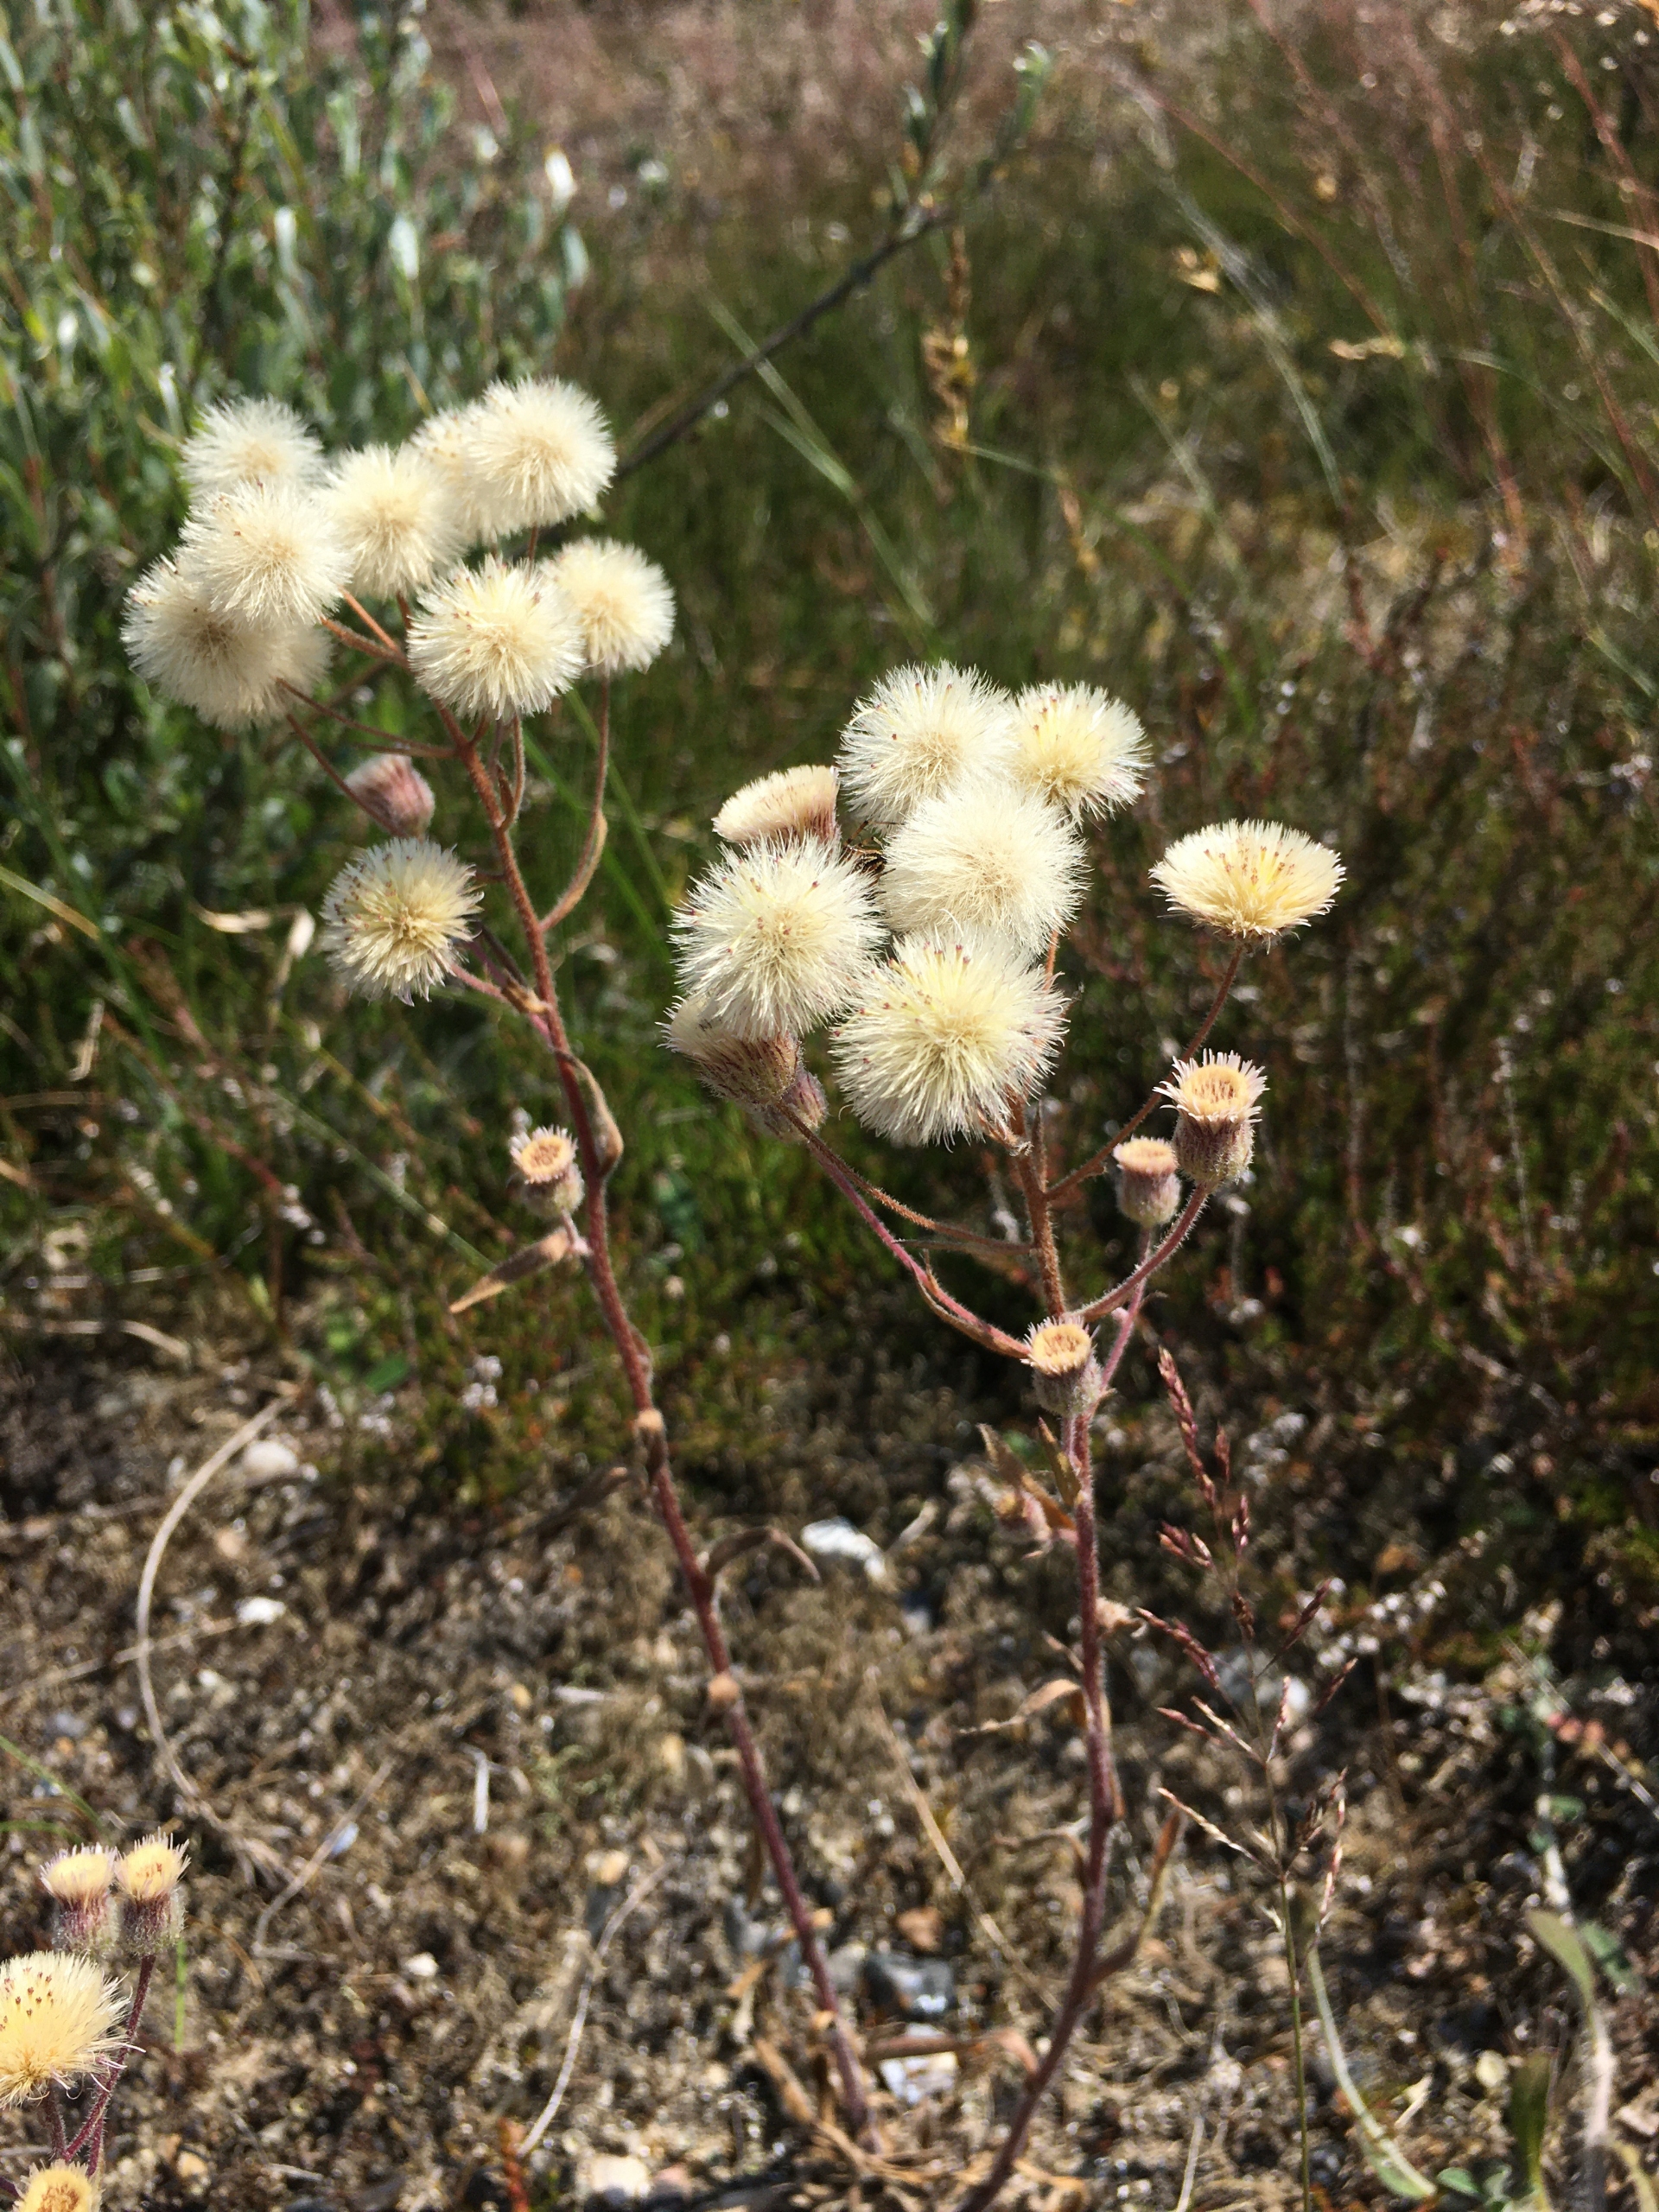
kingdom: Plantae
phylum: Tracheophyta
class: Magnoliopsida
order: Asterales
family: Asteraceae
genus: Erigeron
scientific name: Erigeron muralis
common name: Vreden bakkestjerne
